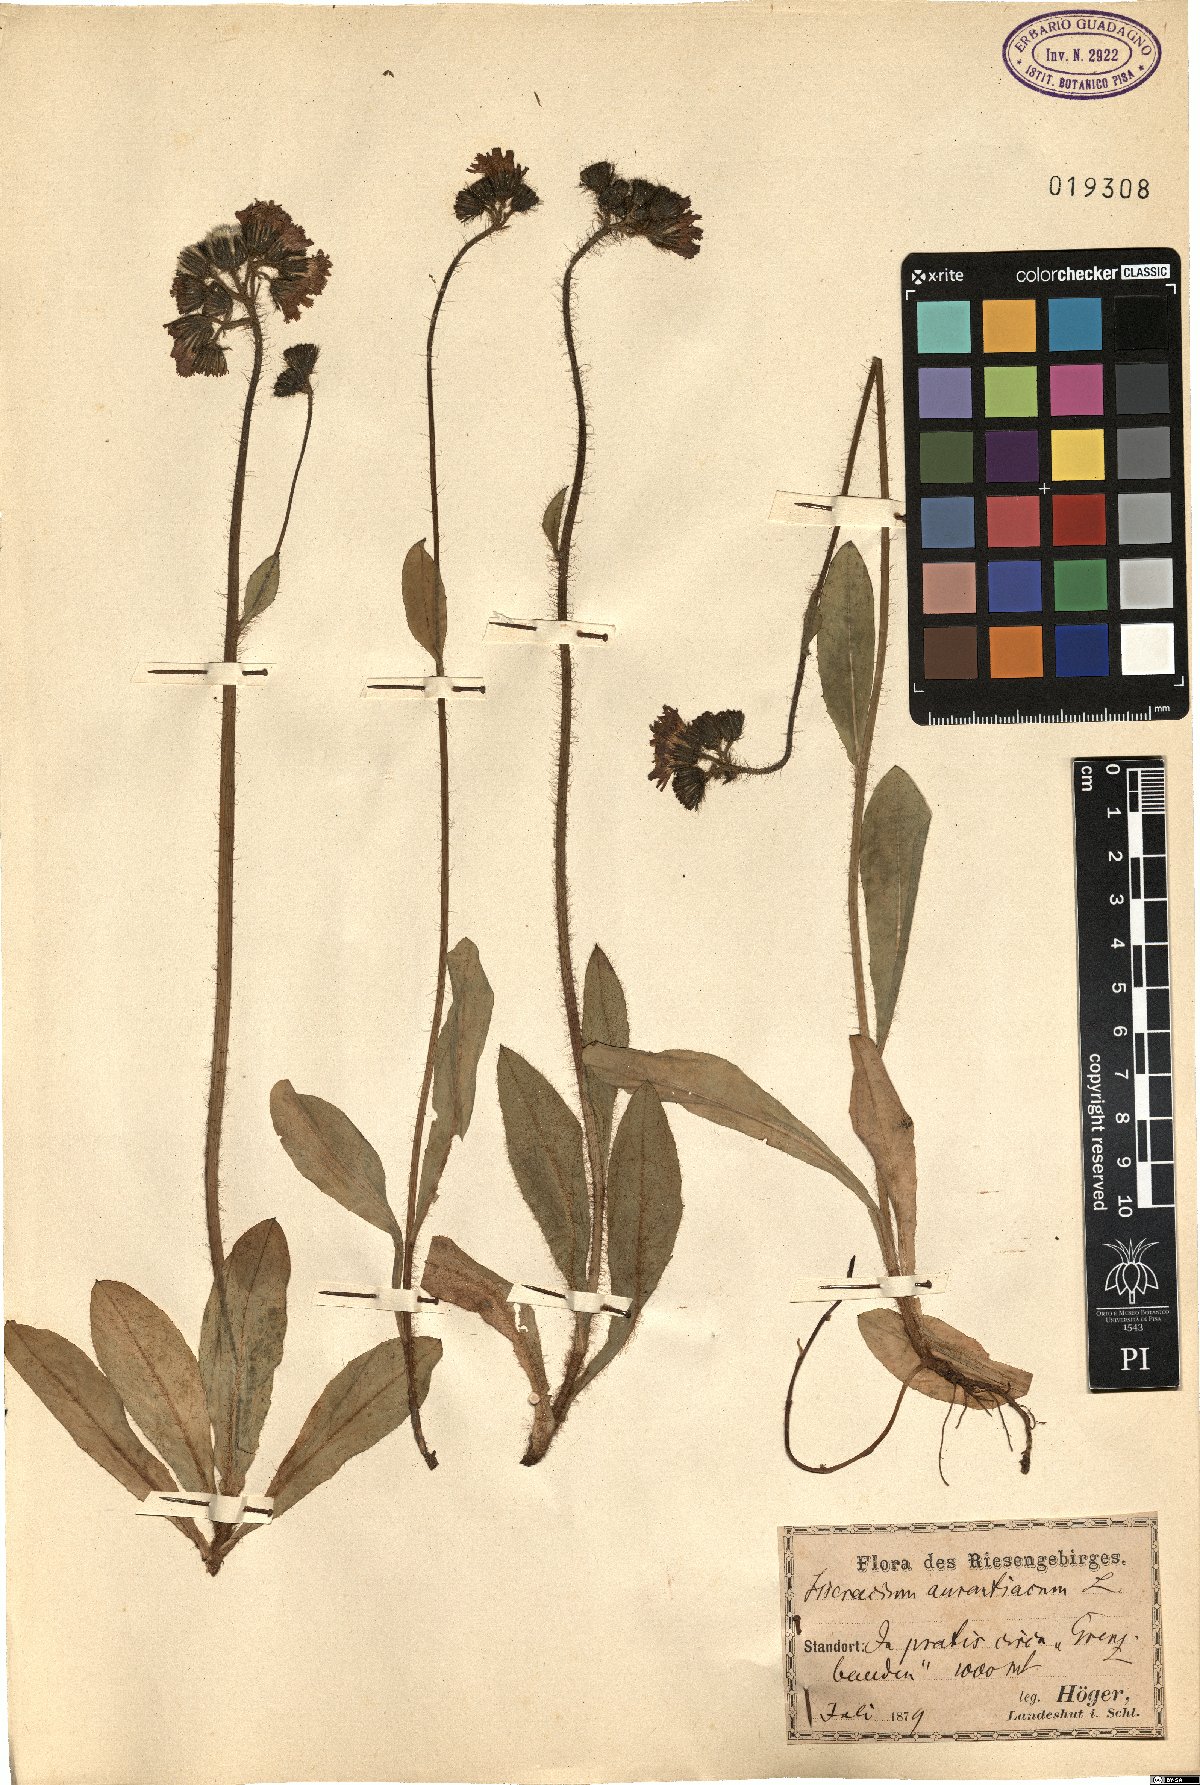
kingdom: Plantae
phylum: Tracheophyta
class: Magnoliopsida
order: Asterales
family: Asteraceae
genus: Pilosella
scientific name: Pilosella aurantiaca
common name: Fox-and-cubs
